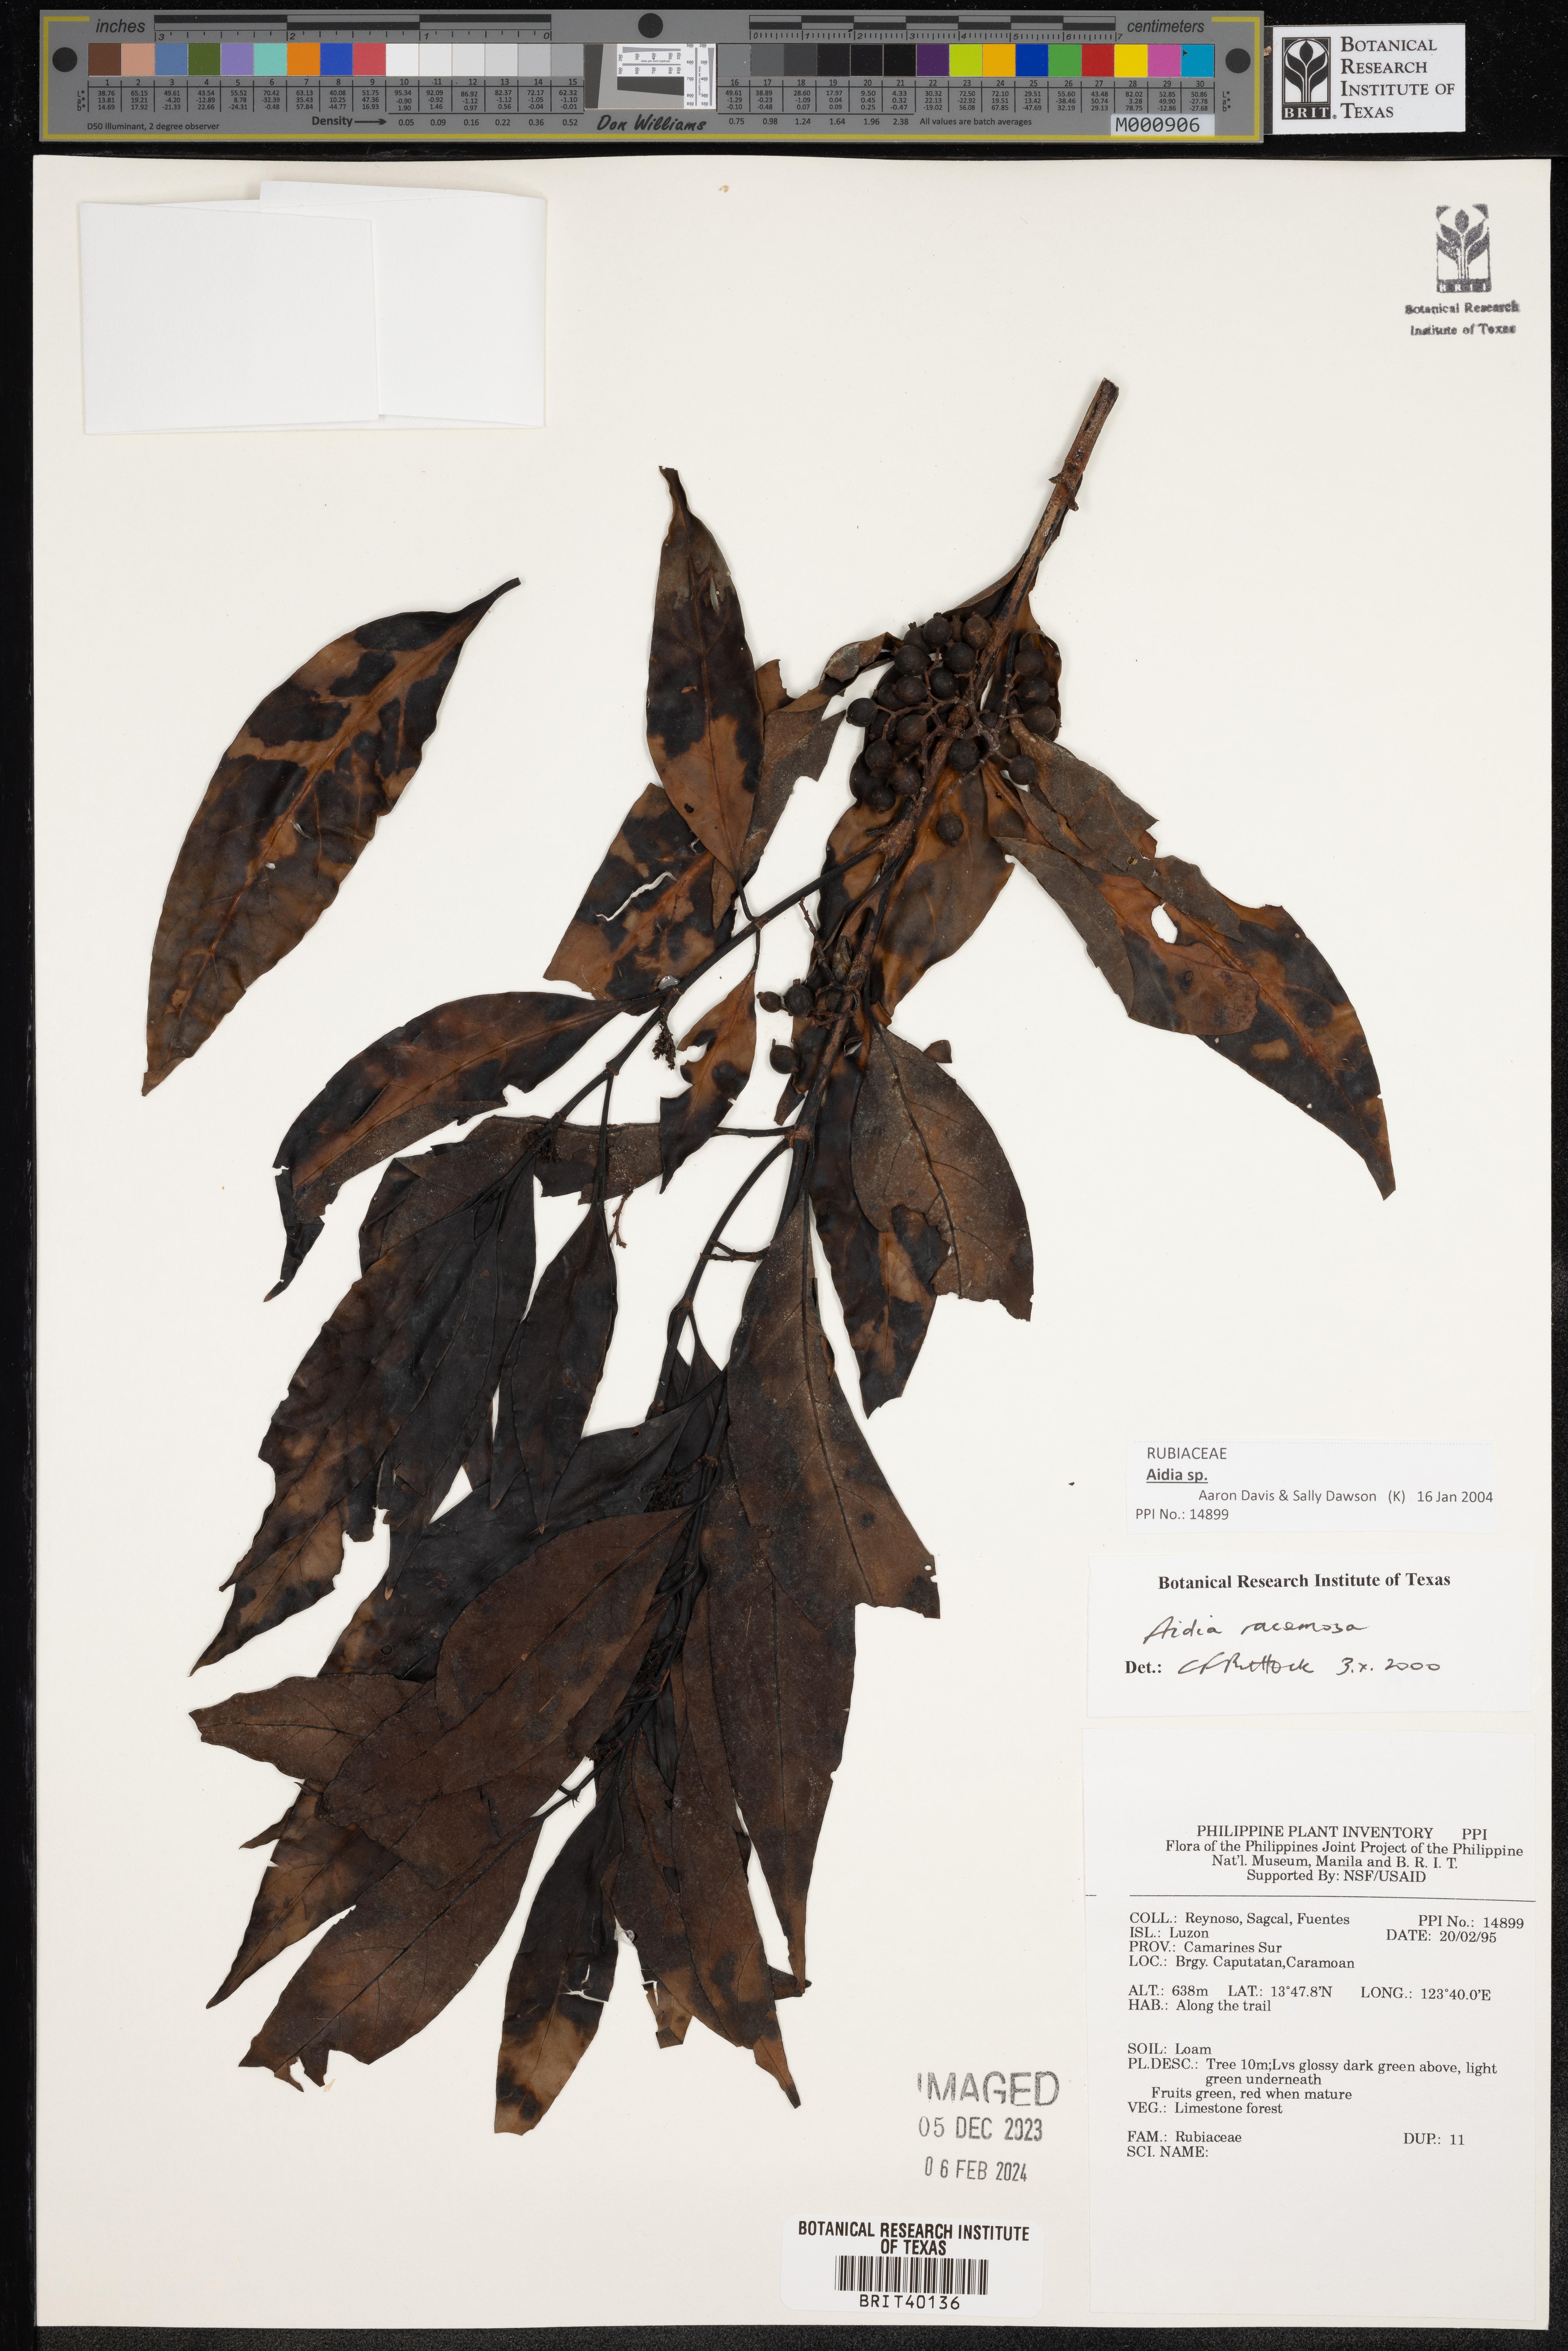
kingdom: Plantae
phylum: Tracheophyta
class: Magnoliopsida
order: Gentianales
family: Rubiaceae
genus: Aidia
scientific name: Aidia racemosa
